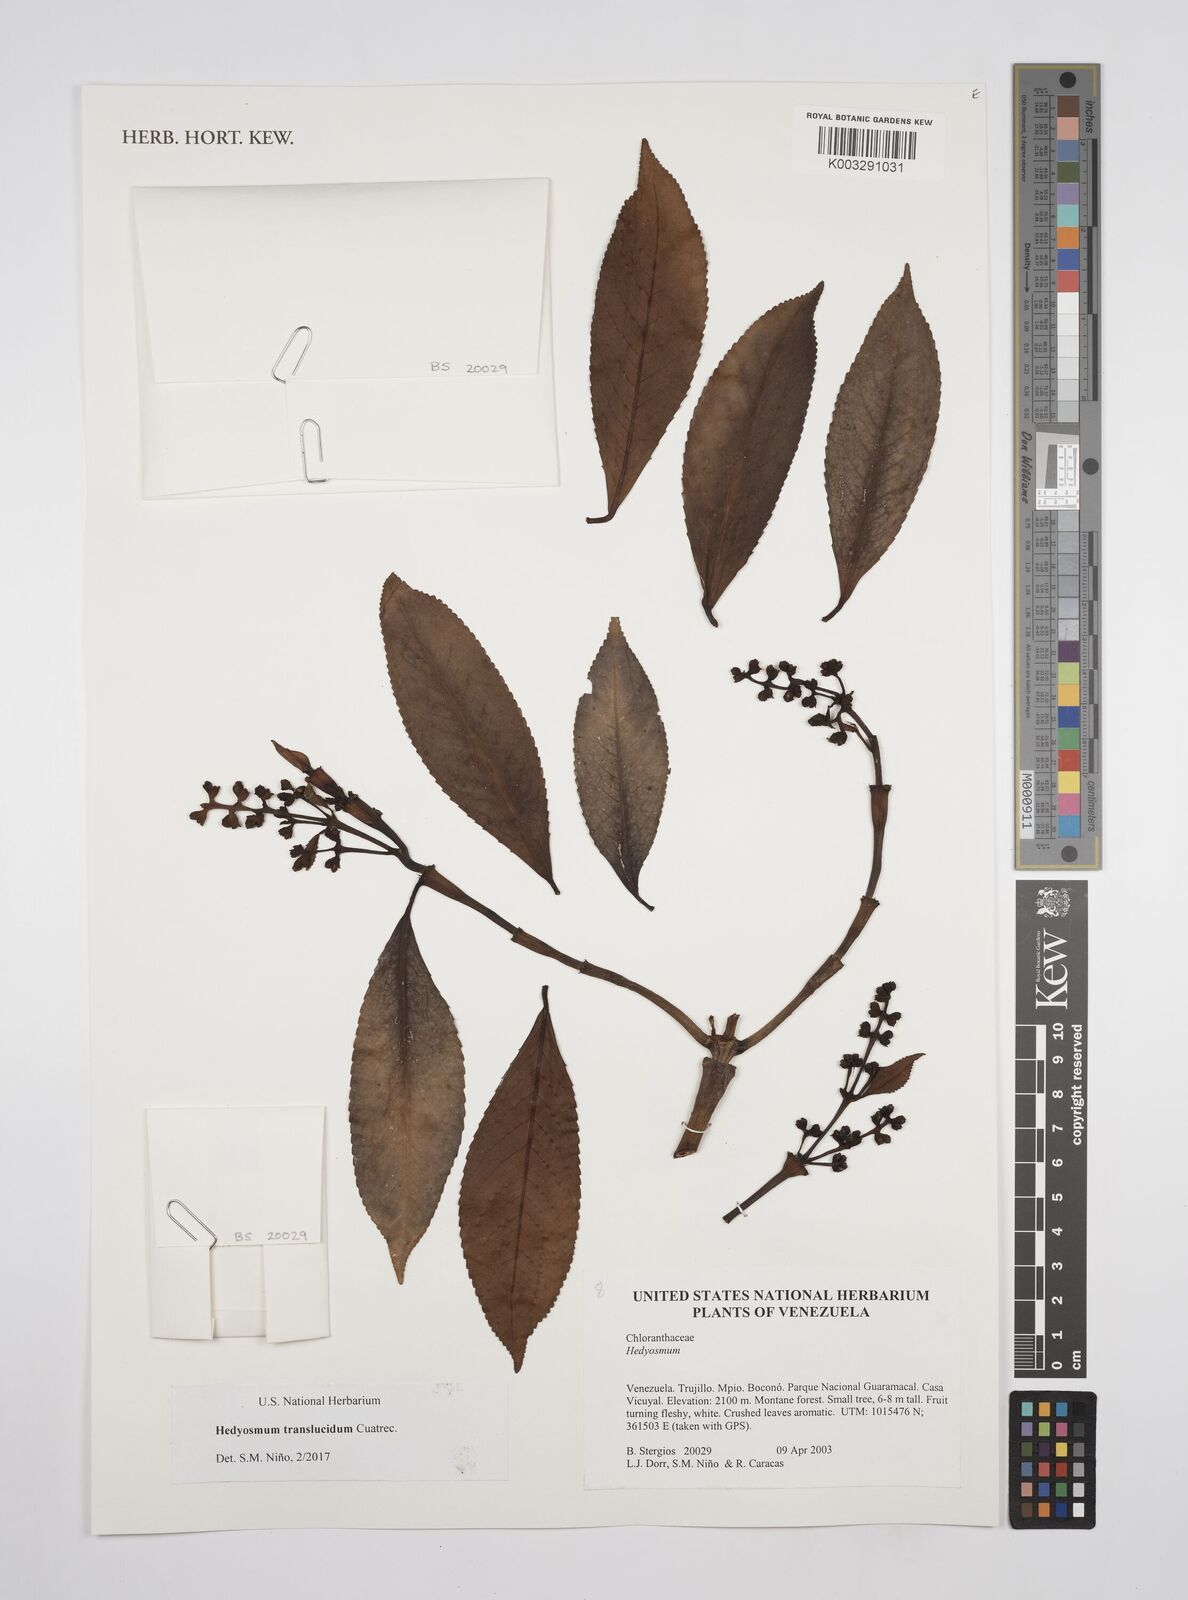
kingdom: Plantae
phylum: Tracheophyta
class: Magnoliopsida
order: Chloranthales
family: Chloranthaceae
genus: Hedyosmum
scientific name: Hedyosmum translucidum
